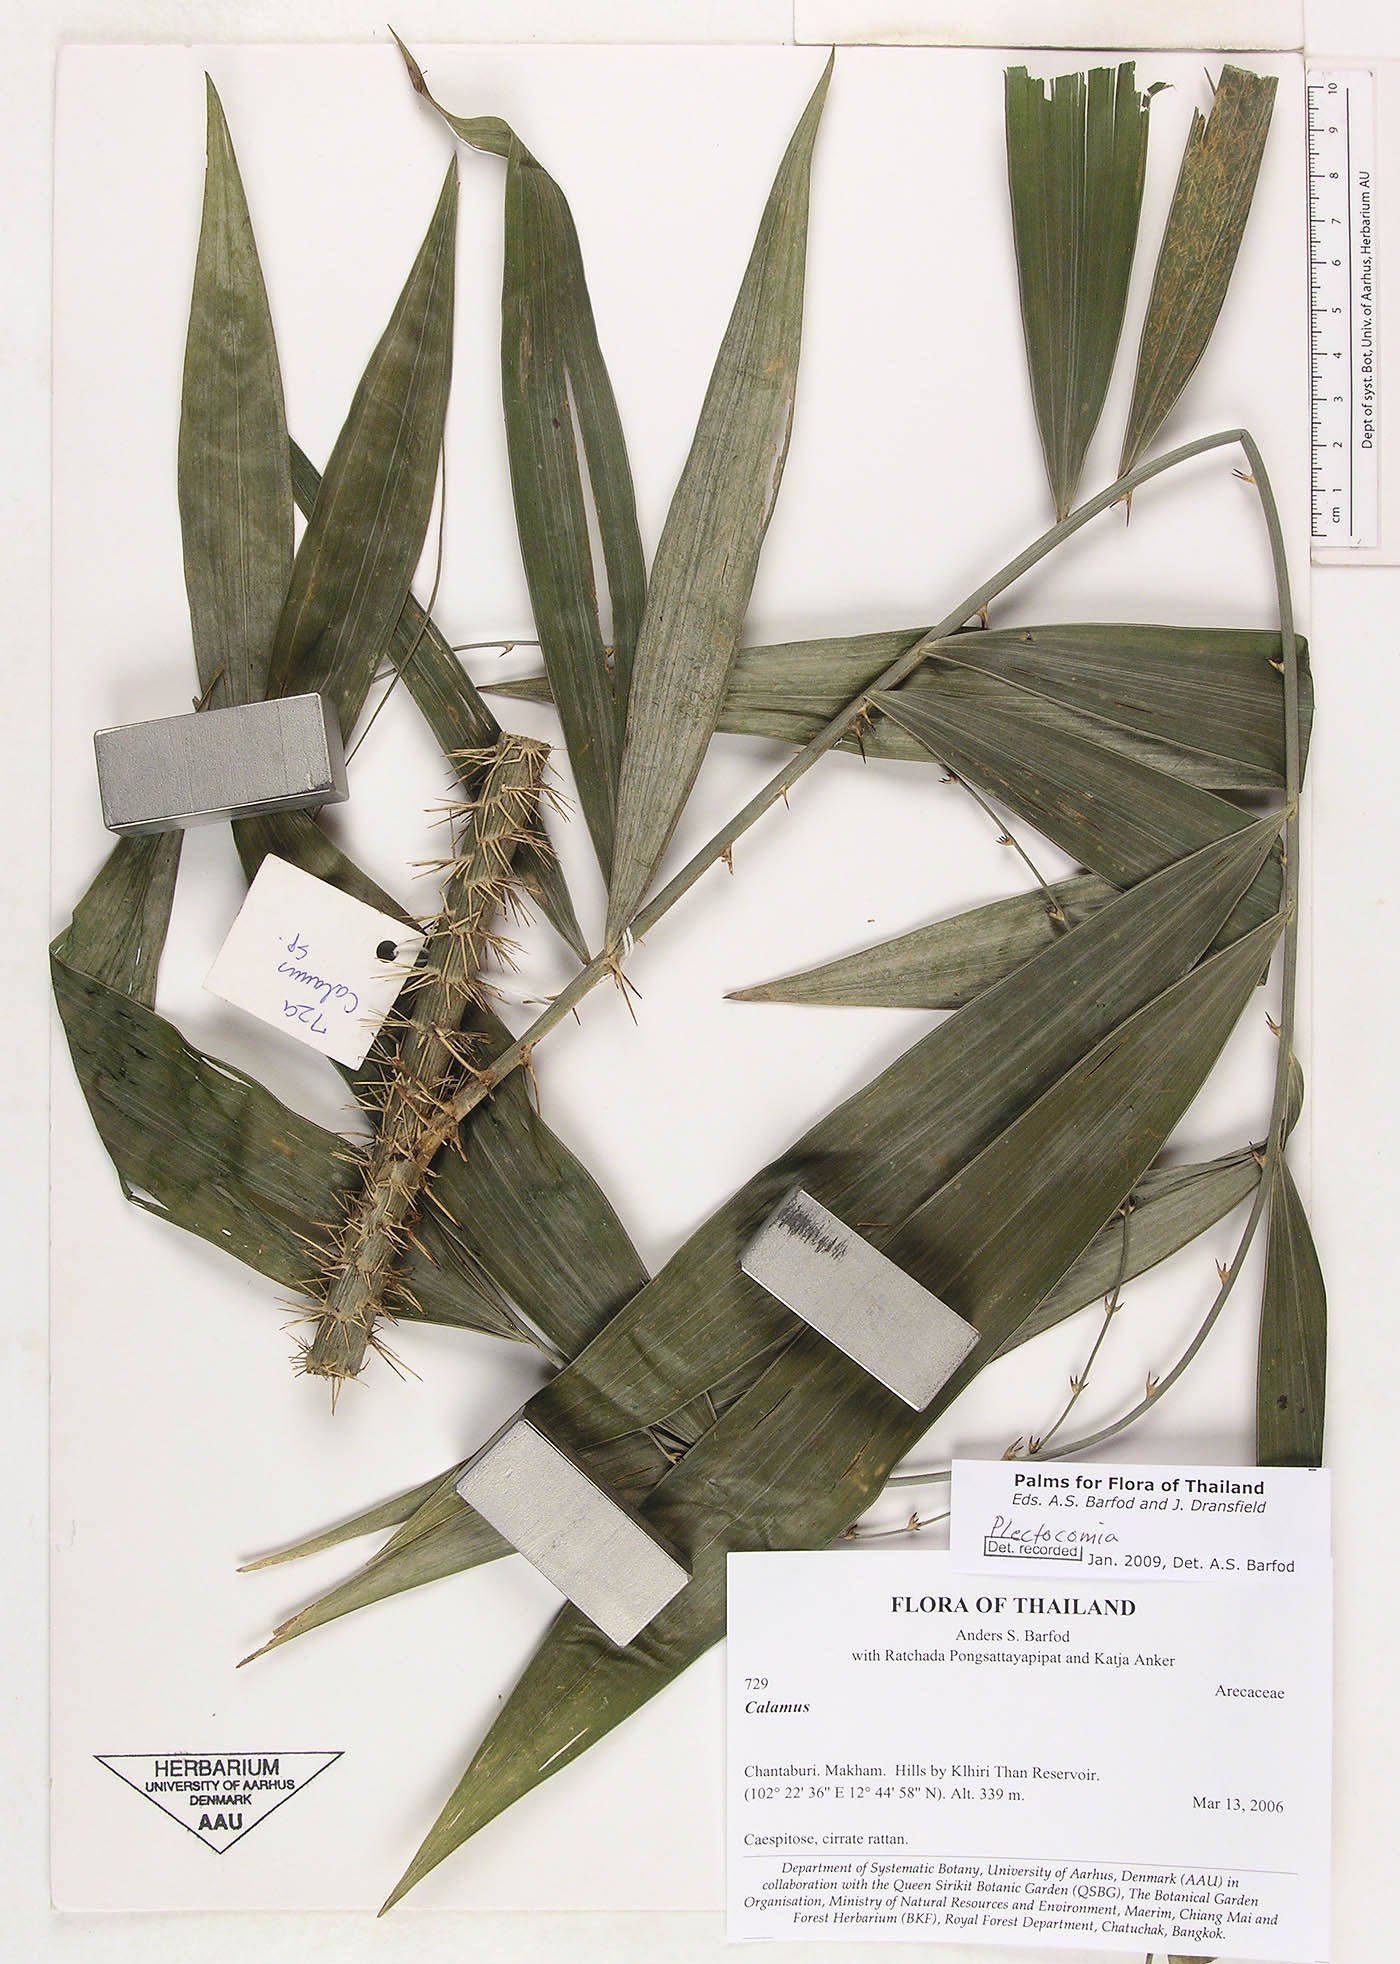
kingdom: Plantae
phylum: Tracheophyta
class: Liliopsida
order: Arecales
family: Arecaceae
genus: Plectocomia
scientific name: Plectocomia
